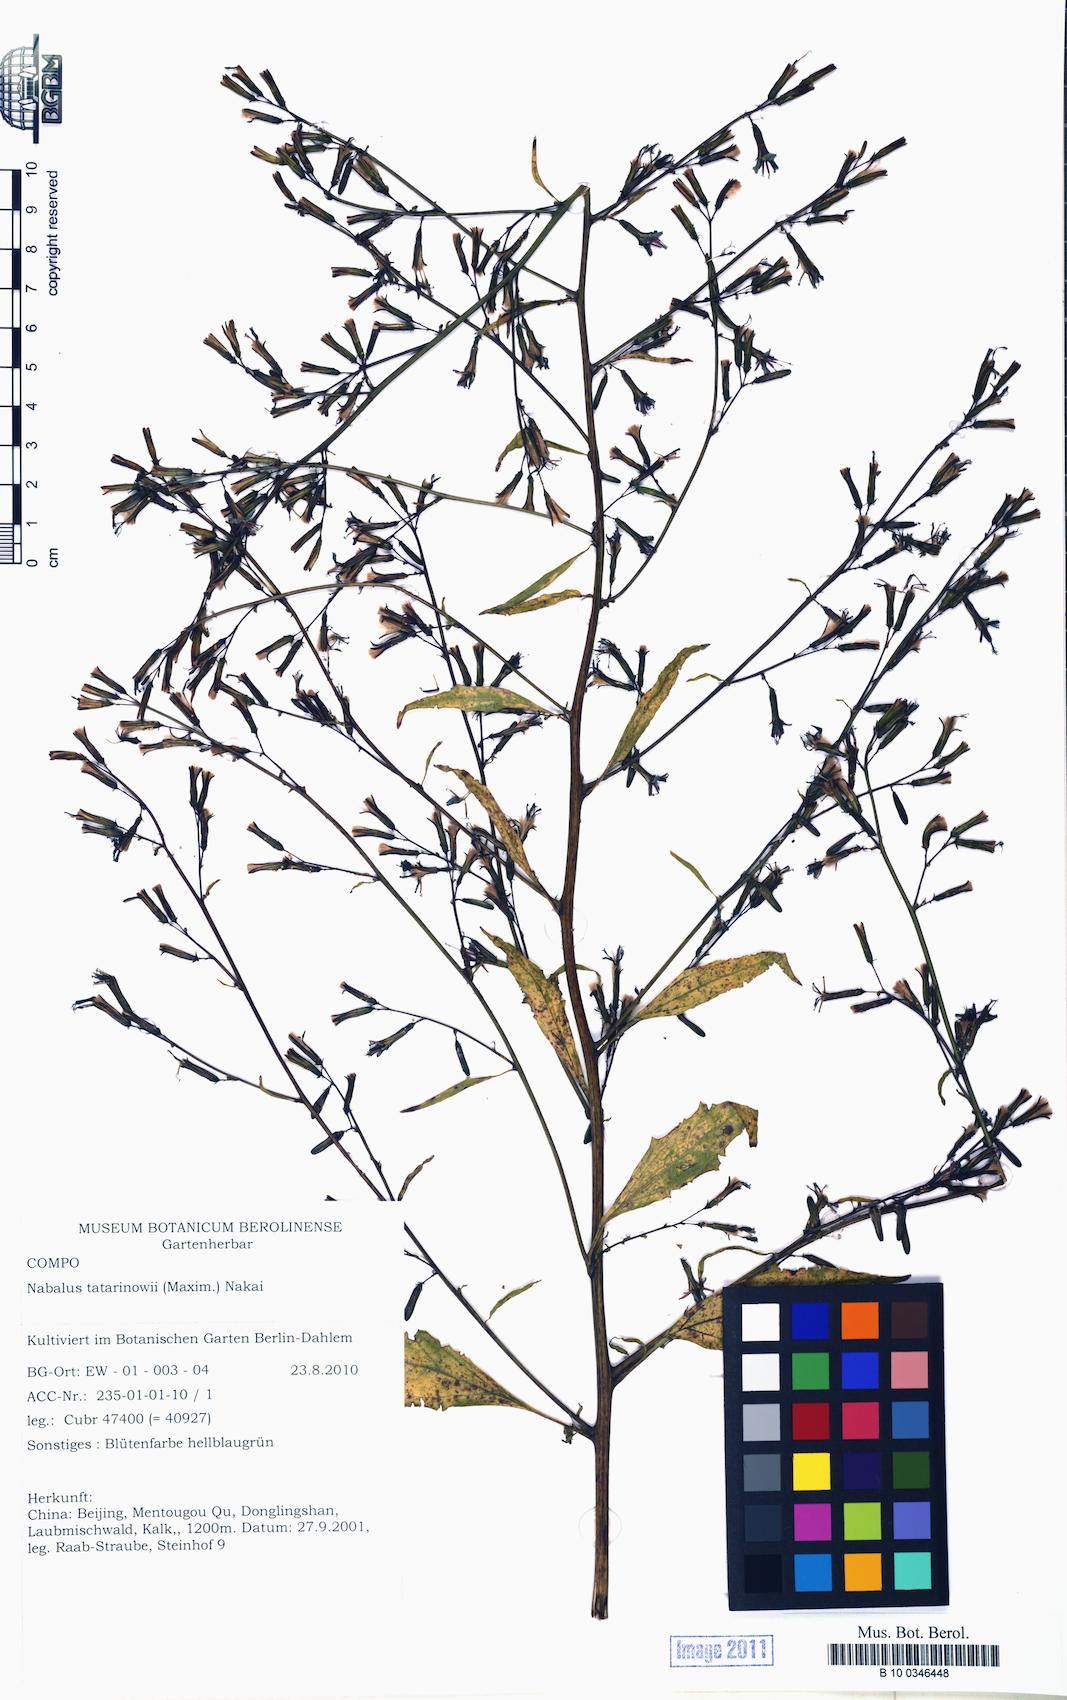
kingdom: Plantae
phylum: Tracheophyta
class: Magnoliopsida
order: Asterales
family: Asteraceae
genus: Nabalus
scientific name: Nabalus tatarinowii
